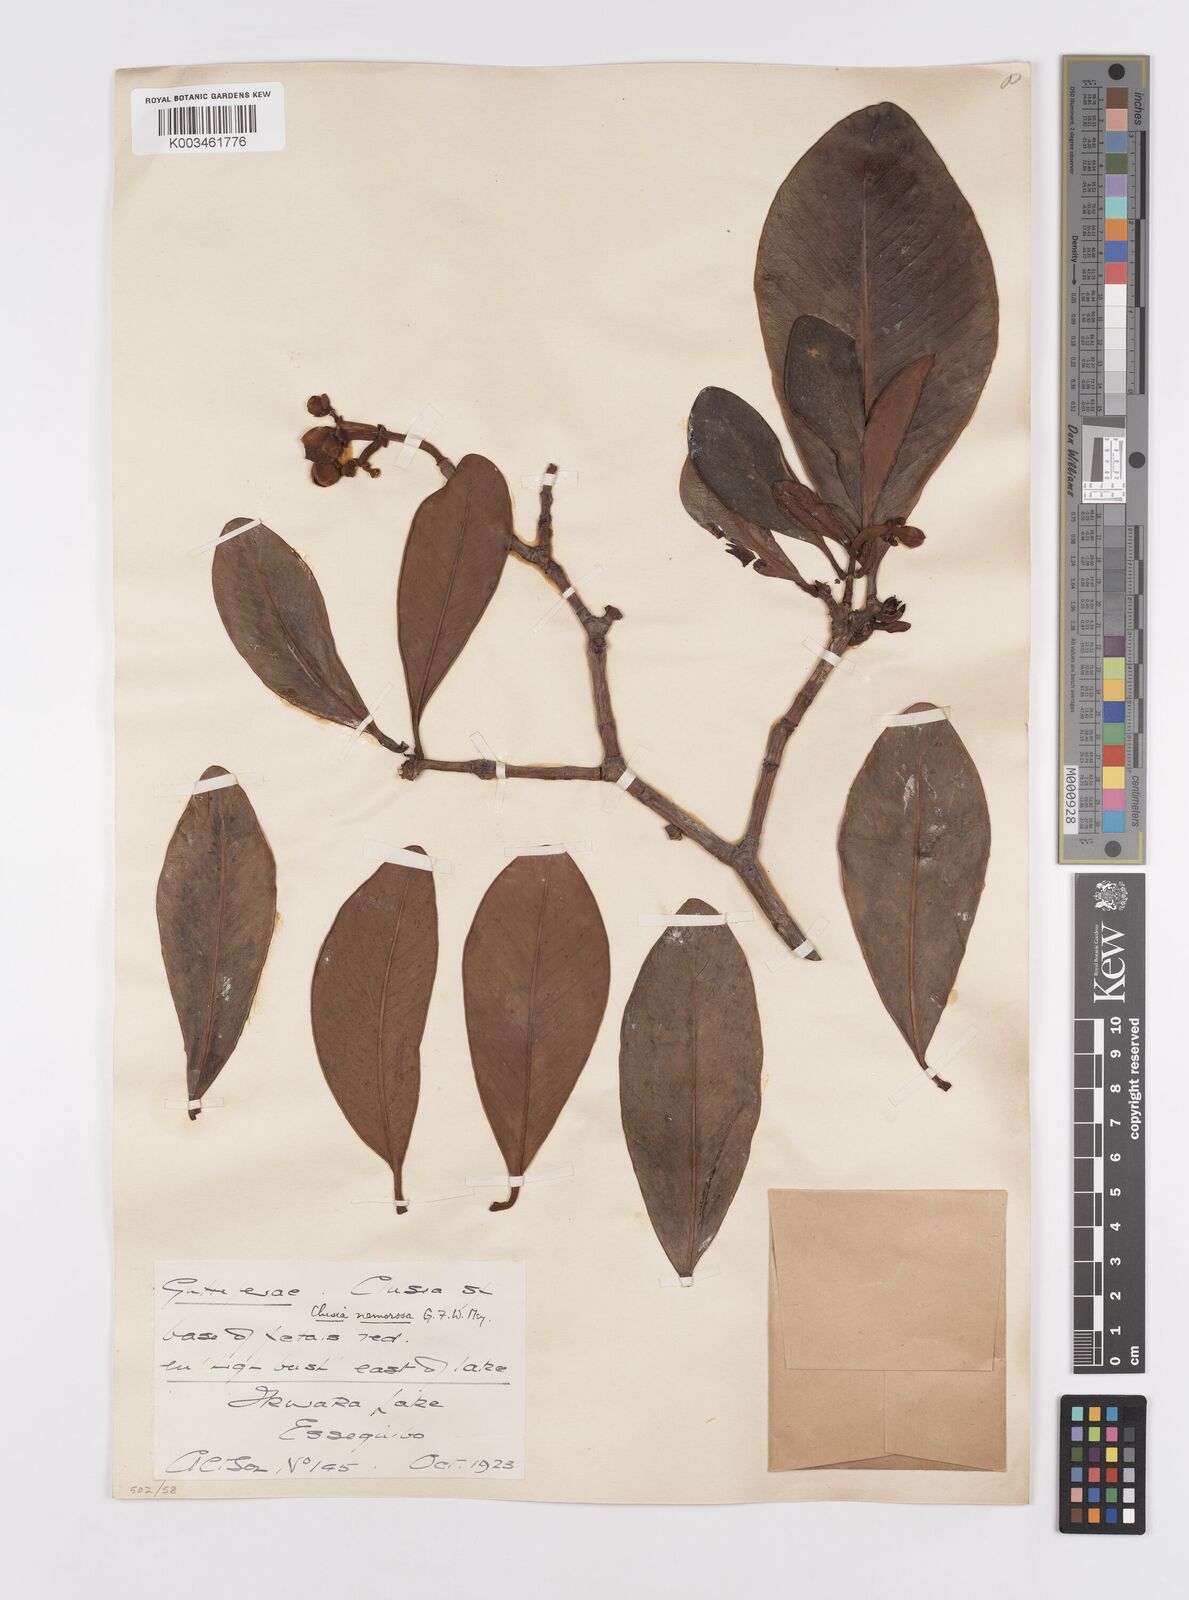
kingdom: Plantae
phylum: Tracheophyta
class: Magnoliopsida
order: Malpighiales
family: Clusiaceae
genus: Clusia
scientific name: Clusia nemorosa
